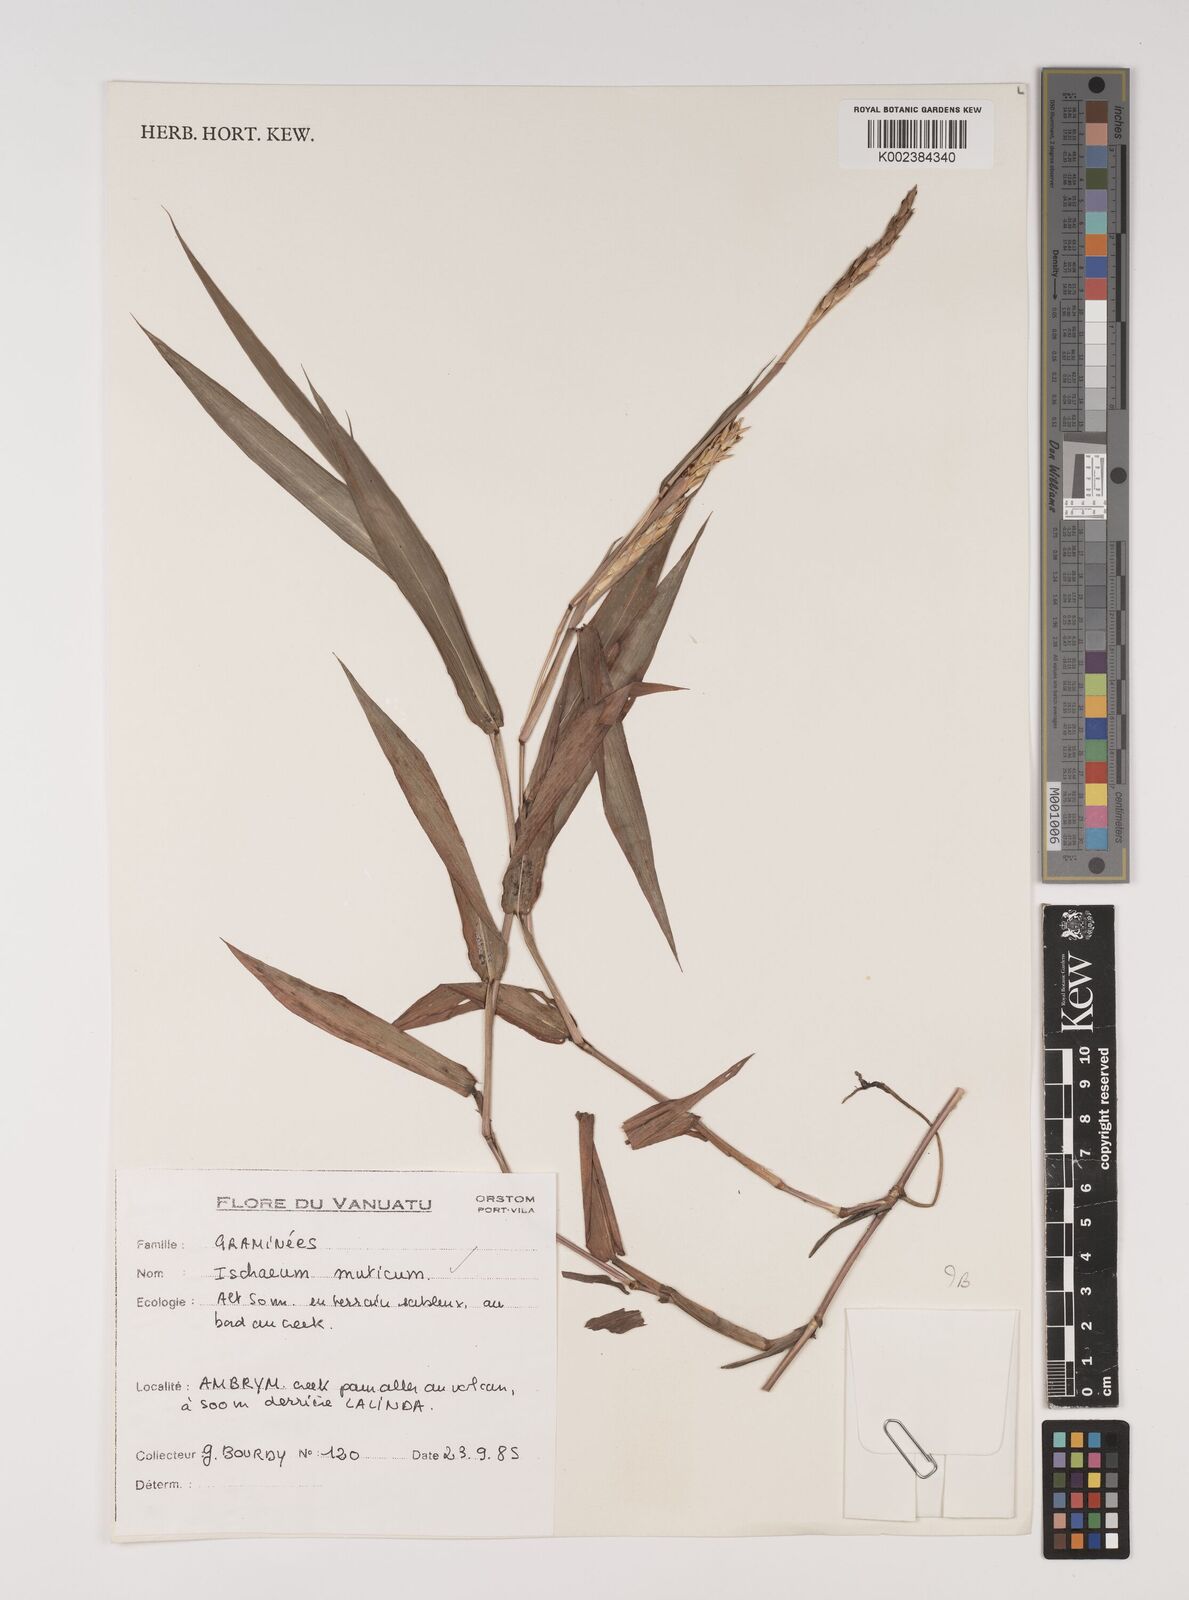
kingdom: Plantae
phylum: Tracheophyta
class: Liliopsida
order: Poales
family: Poaceae
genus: Ischaemum
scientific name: Ischaemum muticum
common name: Drought grass
